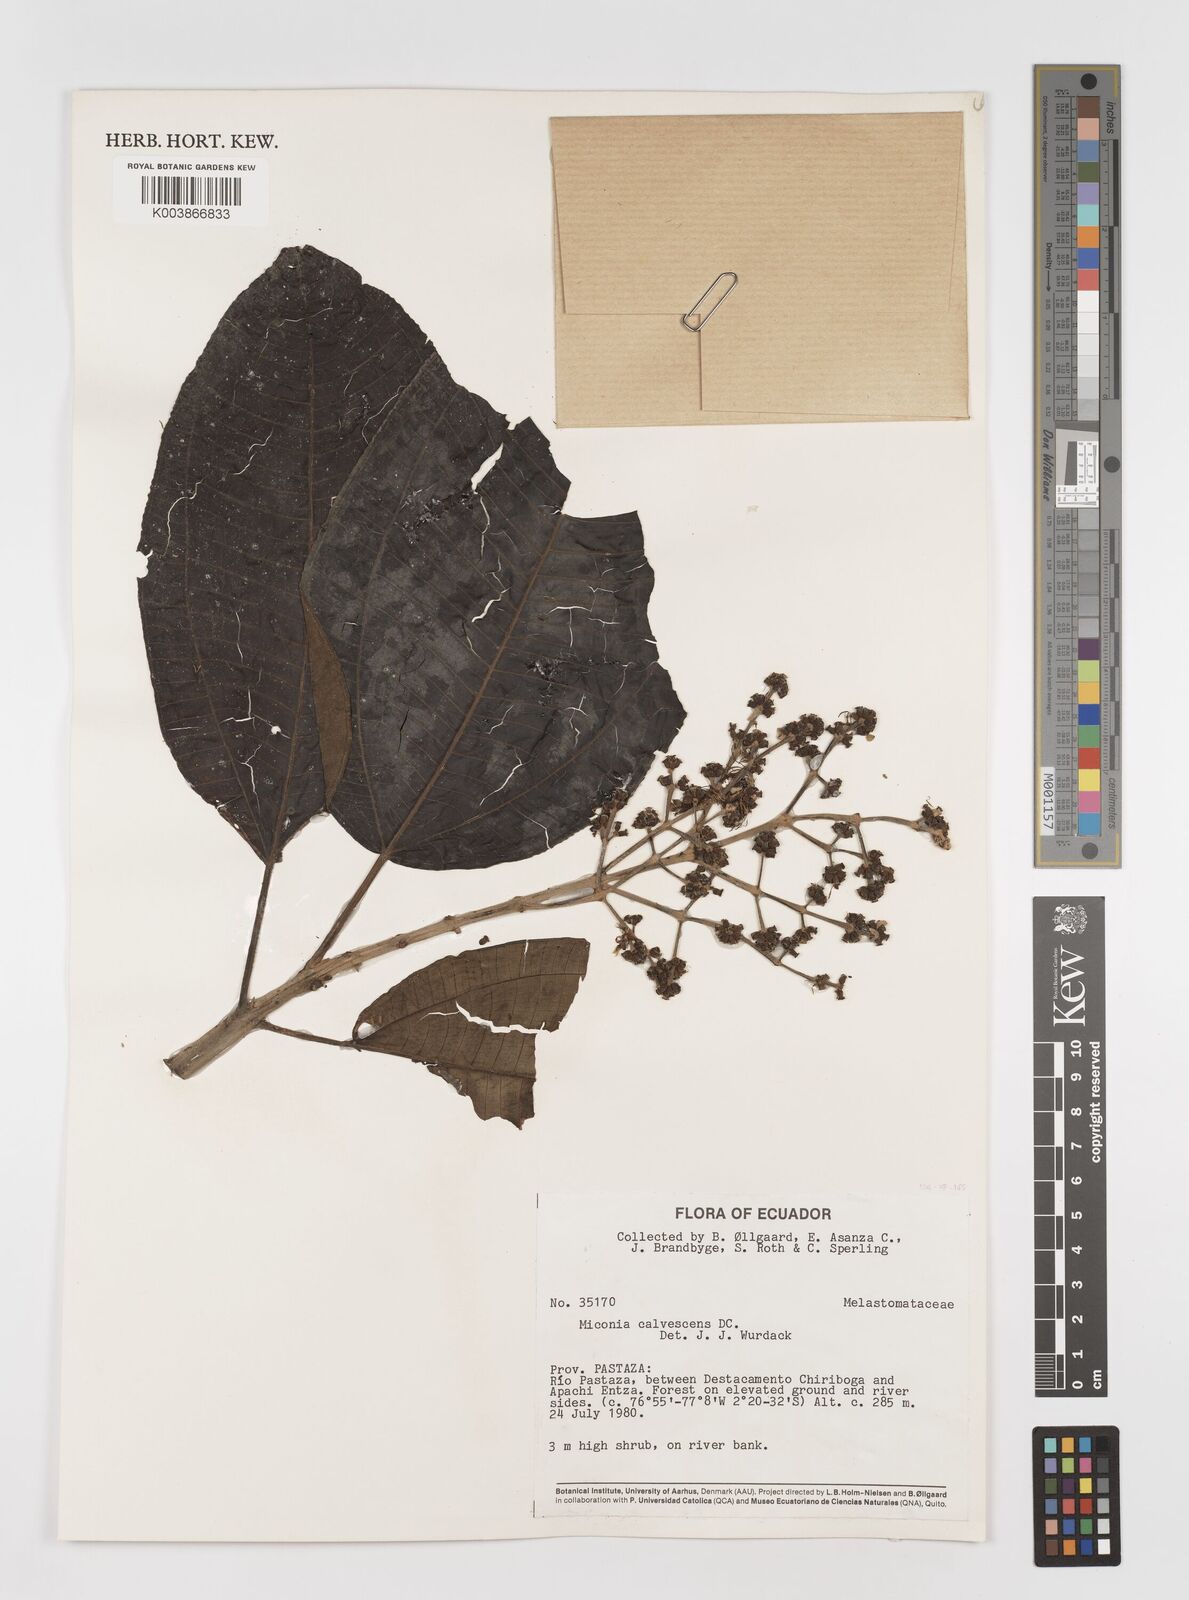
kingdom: Plantae
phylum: Tracheophyta
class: Magnoliopsida
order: Myrtales
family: Melastomataceae
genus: Miconia
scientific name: Miconia calvescens
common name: Purple plague
